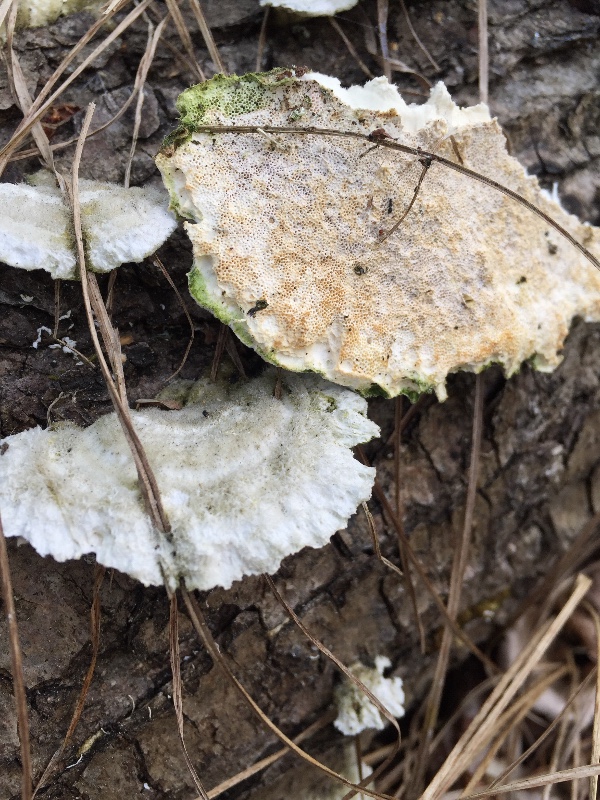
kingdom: Fungi
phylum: Basidiomycota
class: Agaricomycetes
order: Polyporales
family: Polyporaceae
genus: Trametes
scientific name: Trametes hirsuta
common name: håret læderporesvamp
